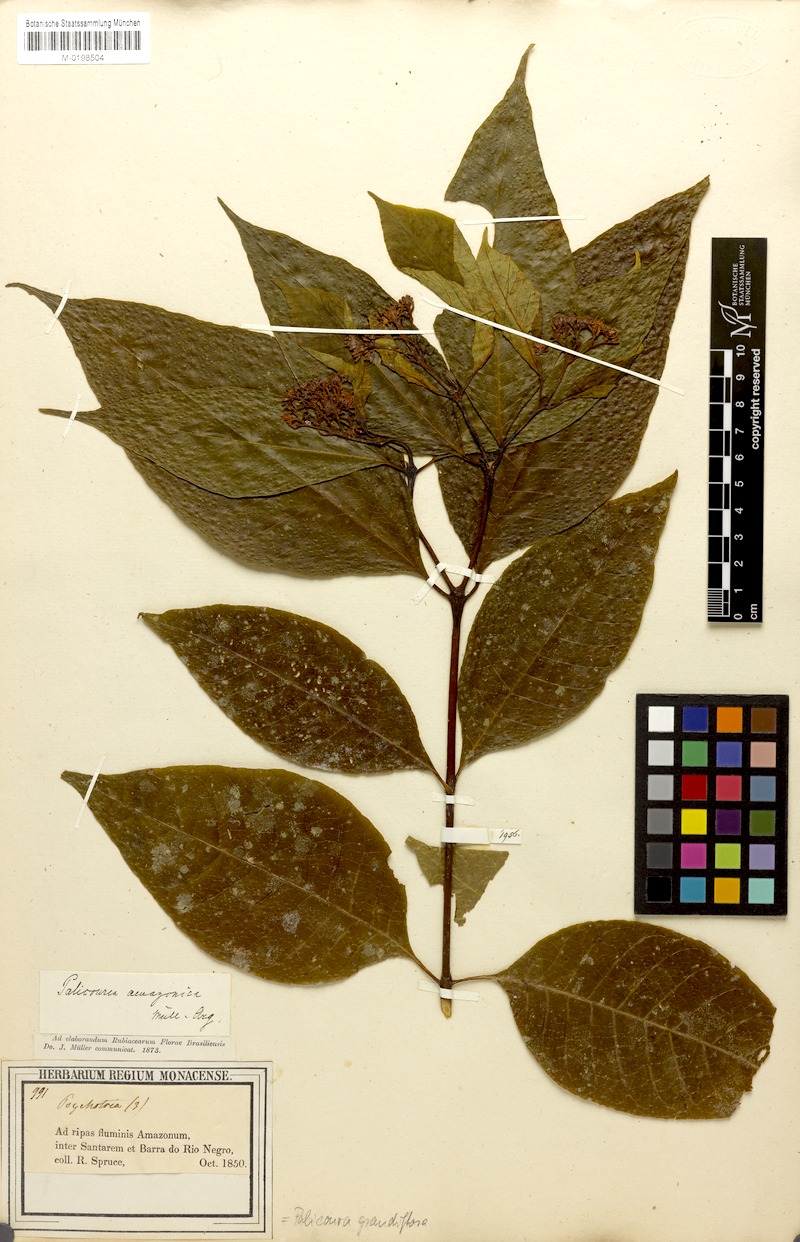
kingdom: Plantae
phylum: Tracheophyta
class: Magnoliopsida
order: Gentianales
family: Rubiaceae
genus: Palicourea
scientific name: Palicourea grandifolia
